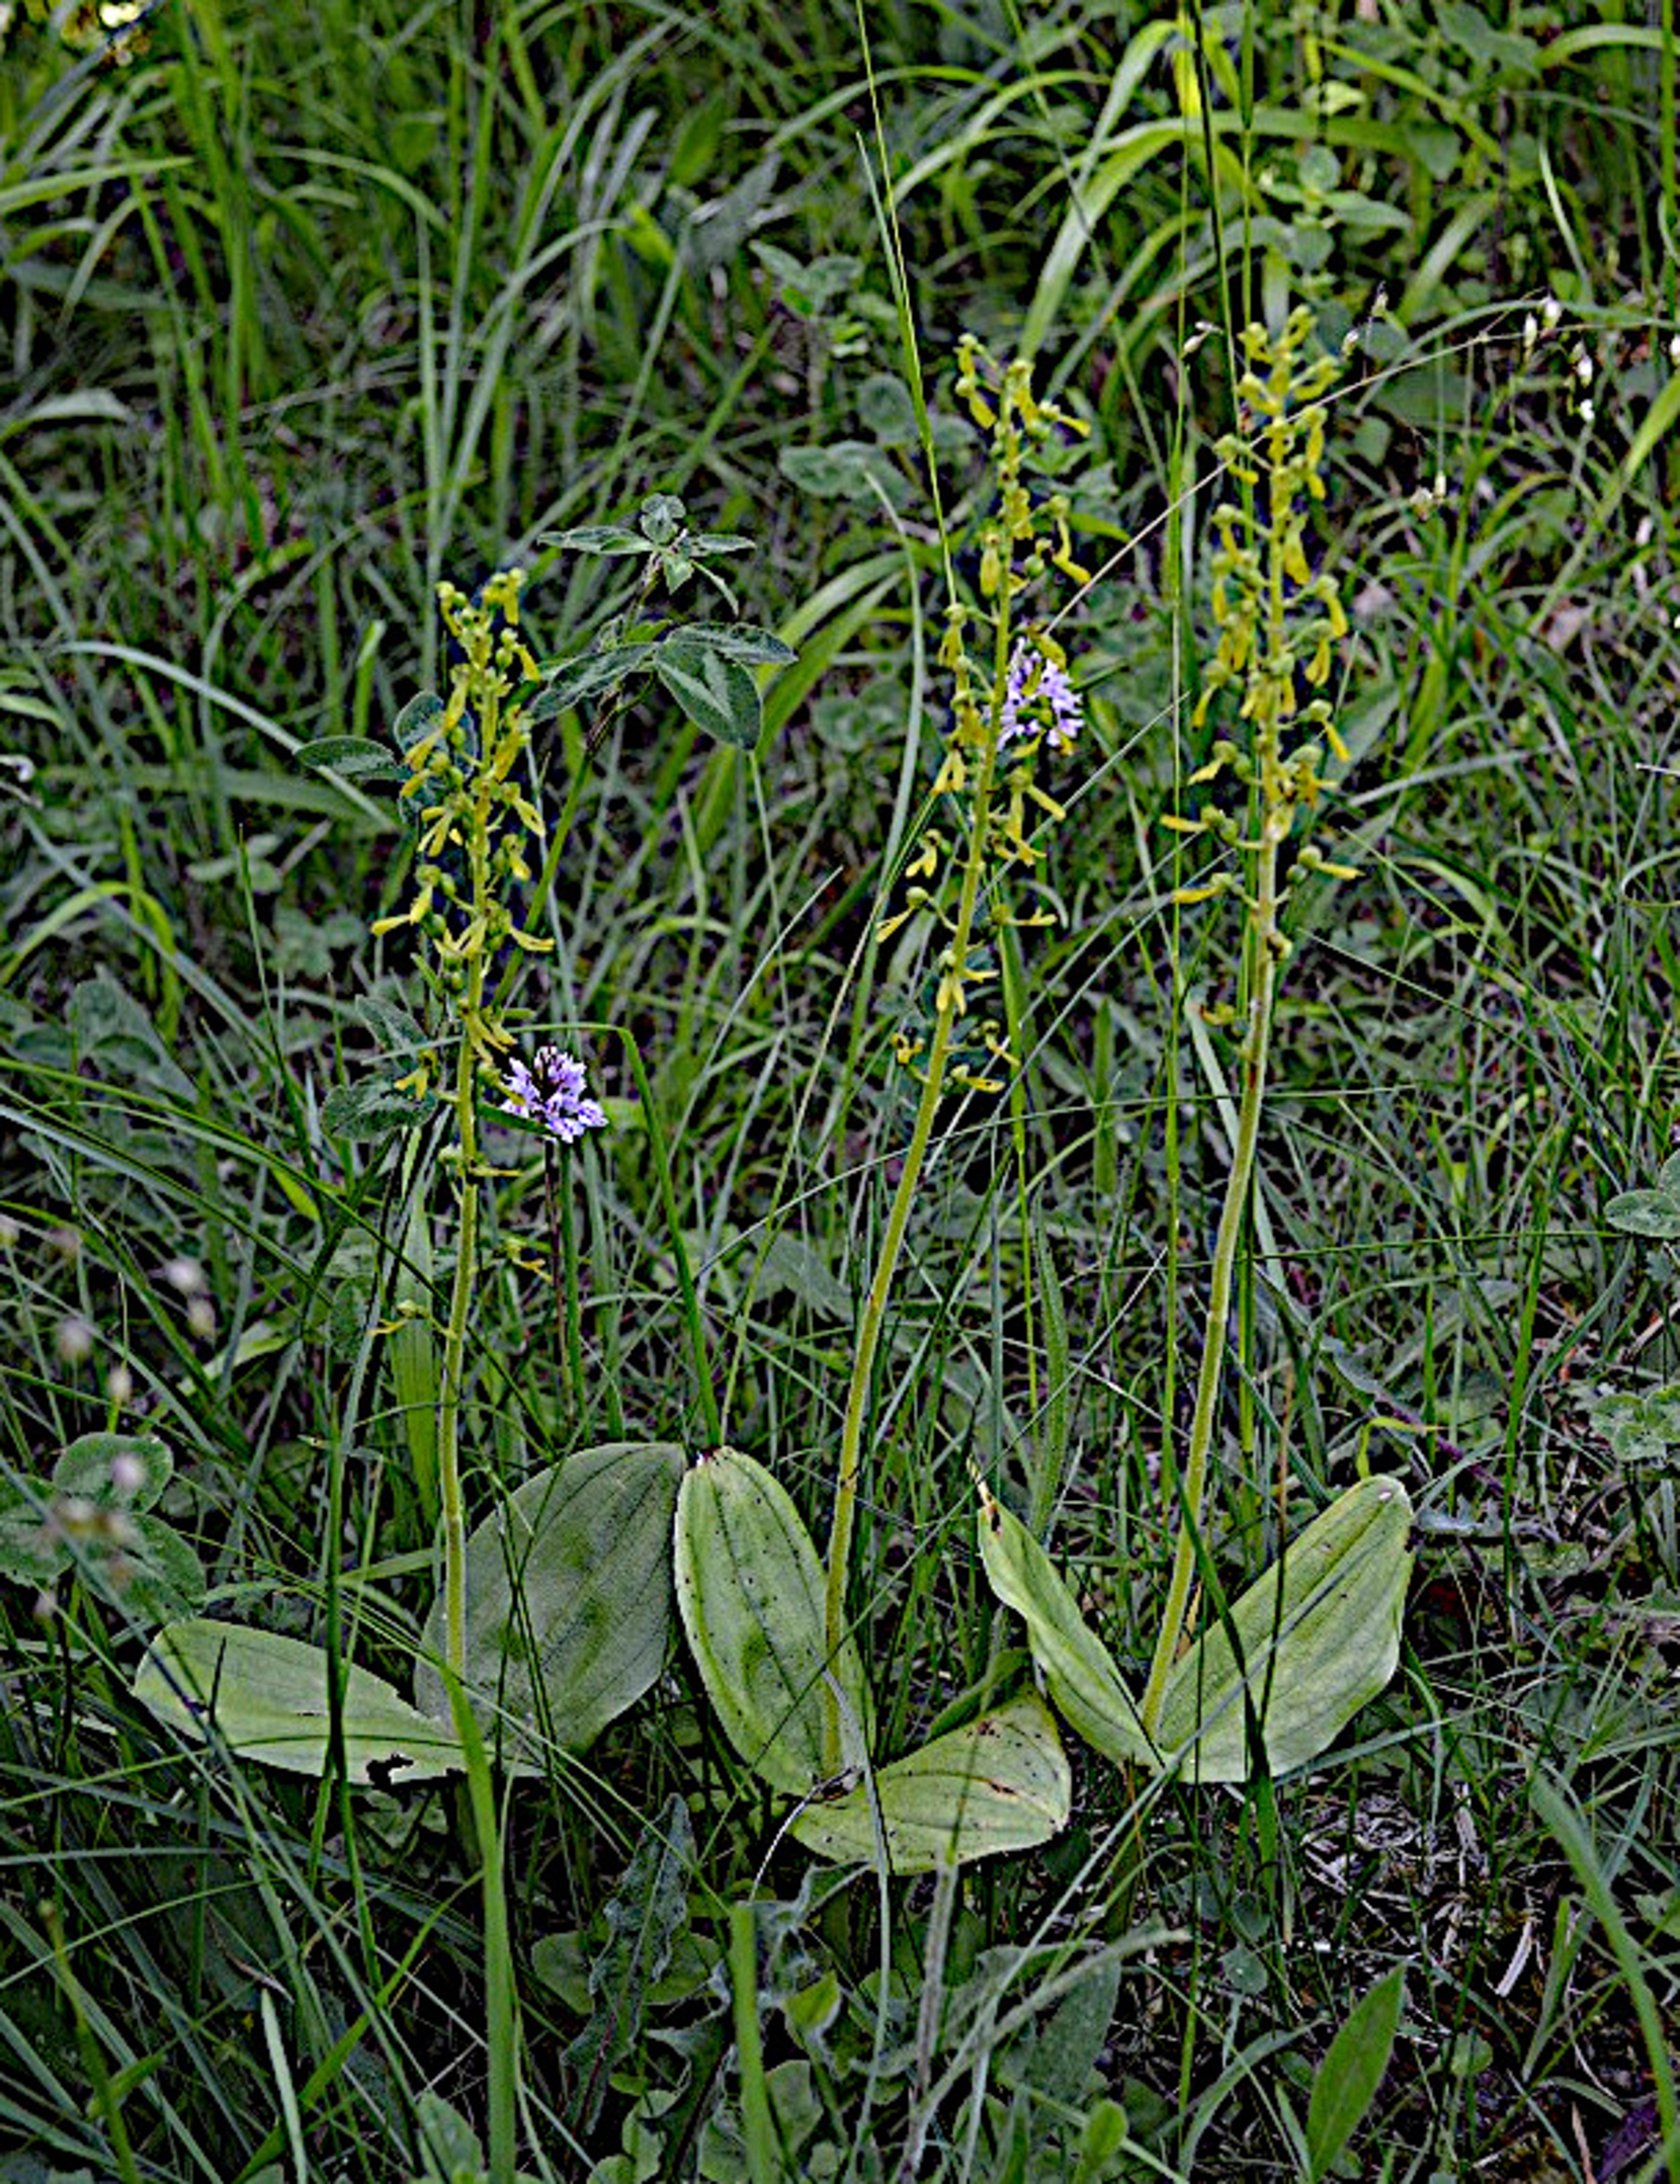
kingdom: Plantae
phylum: Tracheophyta
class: Liliopsida
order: Asparagales
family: Orchidaceae
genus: Neottia
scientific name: Neottia ovata
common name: Ægbladet fliglæbe
